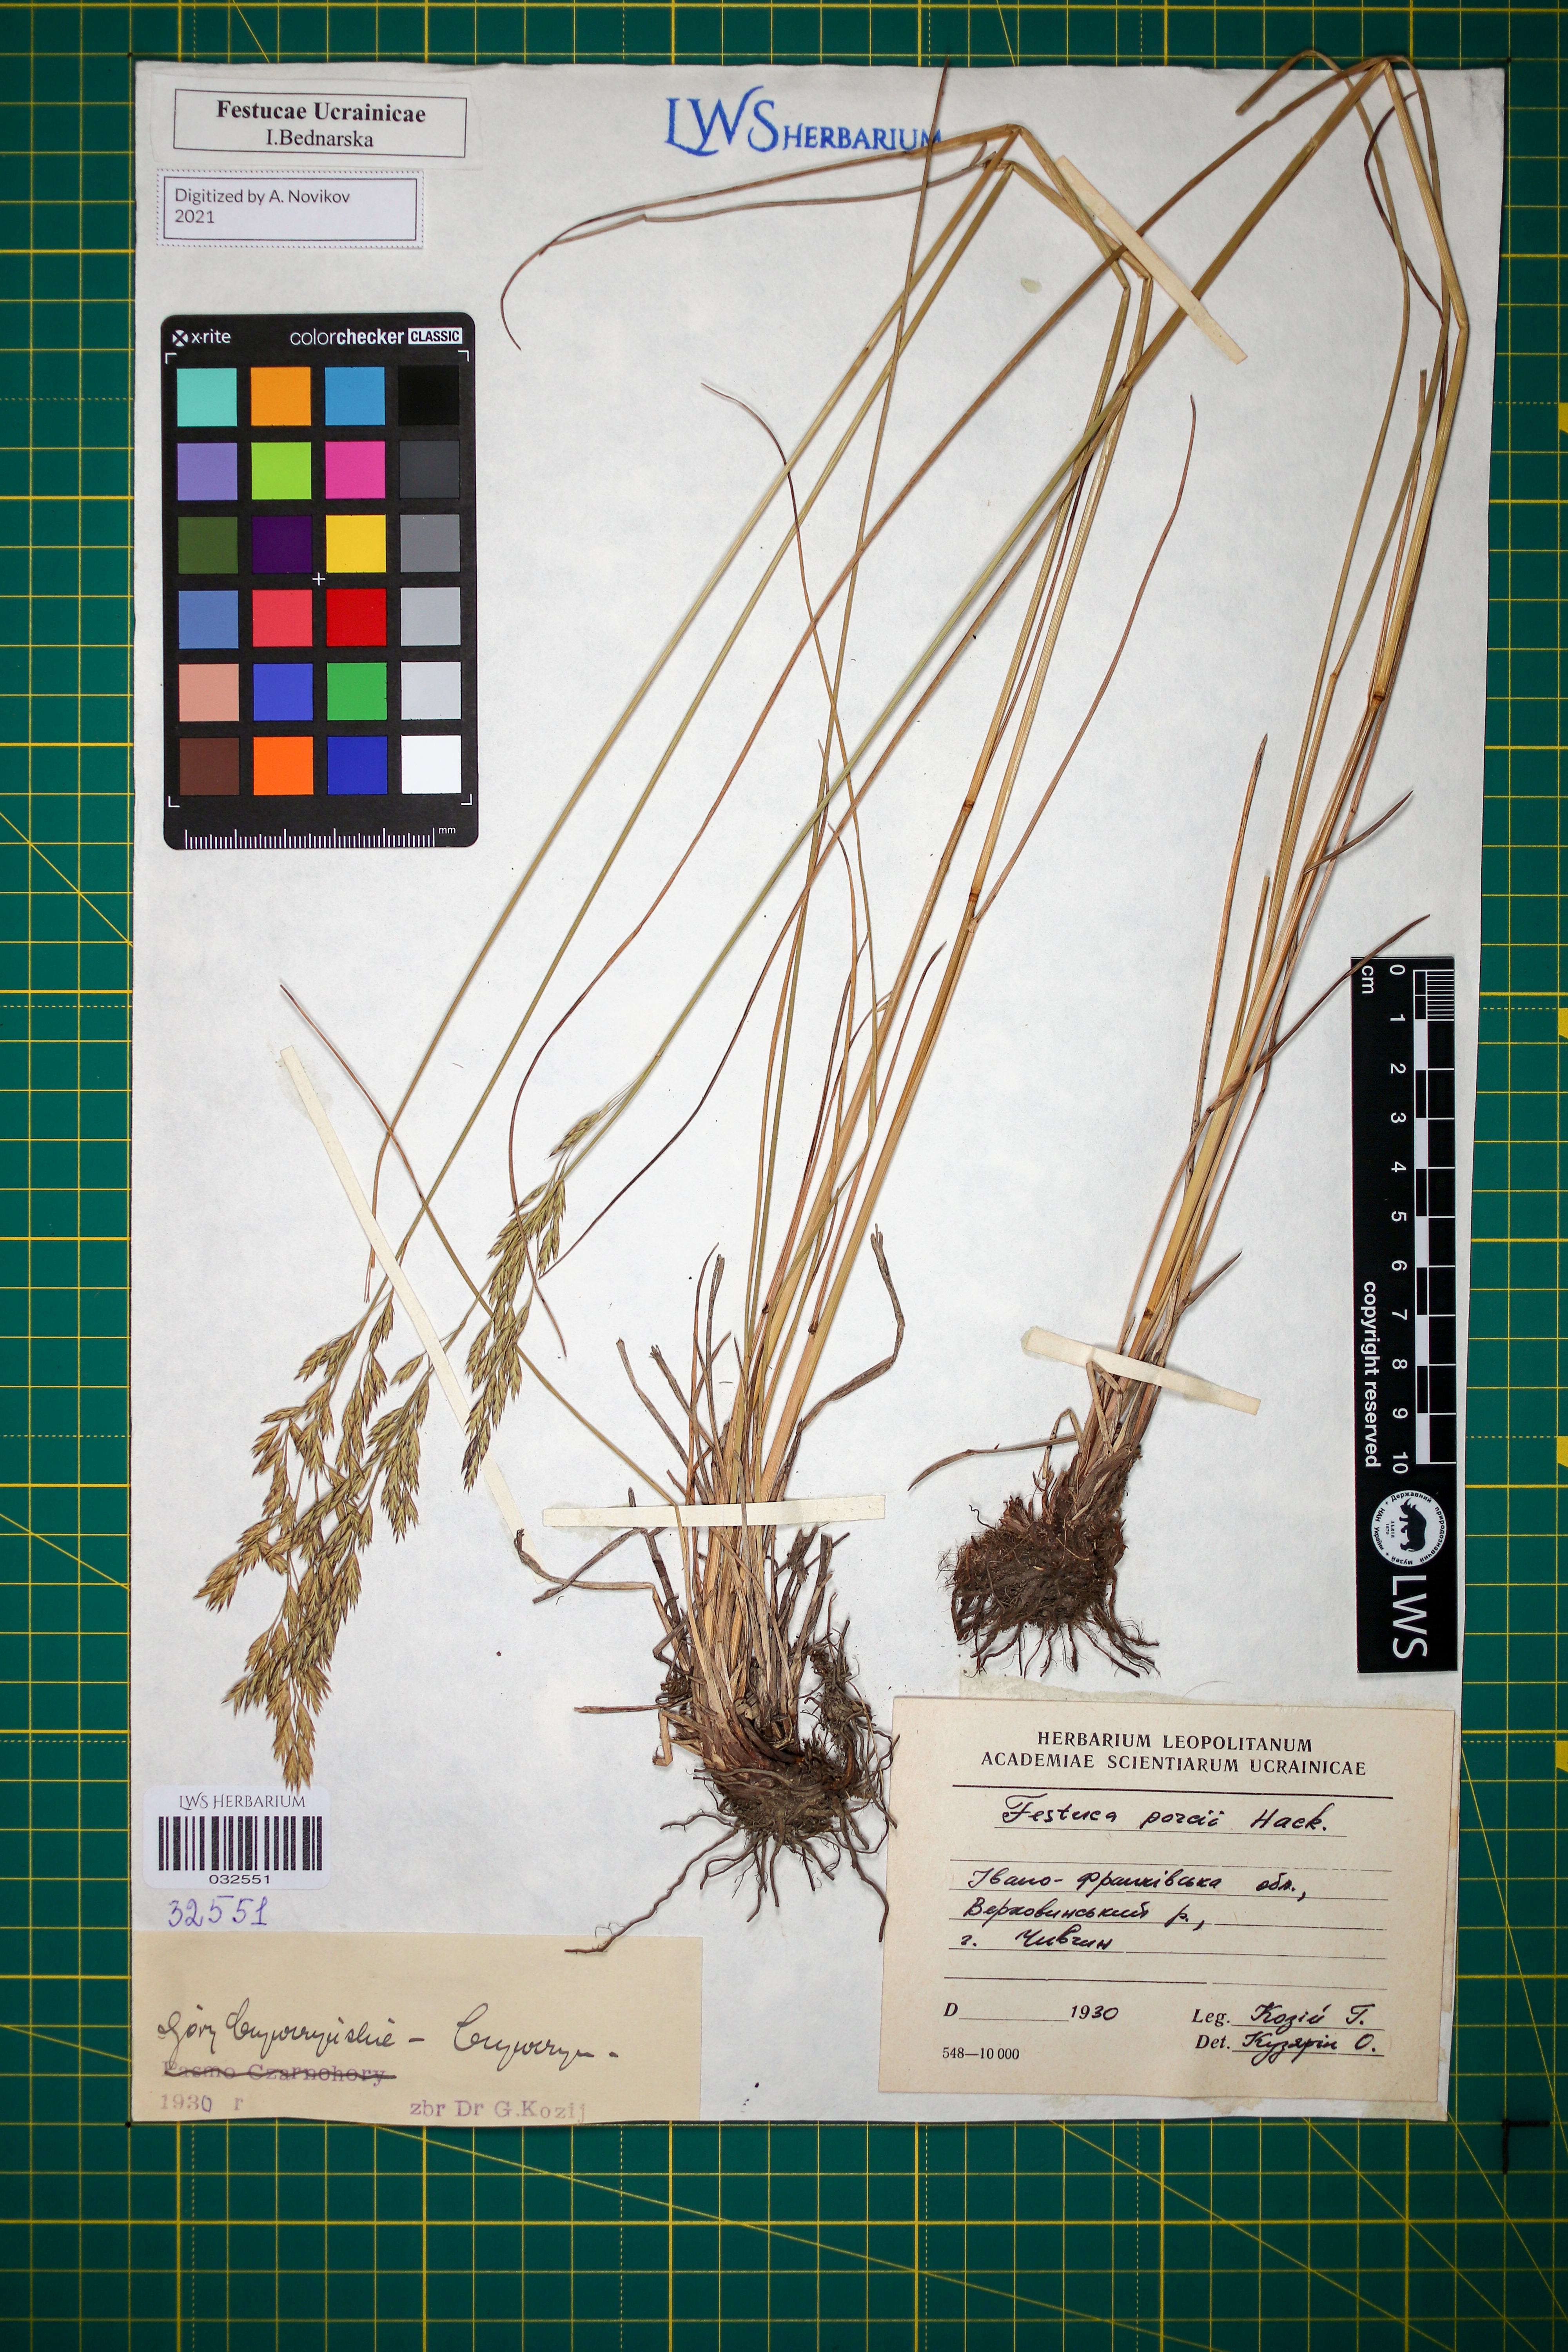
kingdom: Plantae
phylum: Tracheophyta
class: Liliopsida
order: Poales
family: Poaceae
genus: Festuca
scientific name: Festuca porcii
